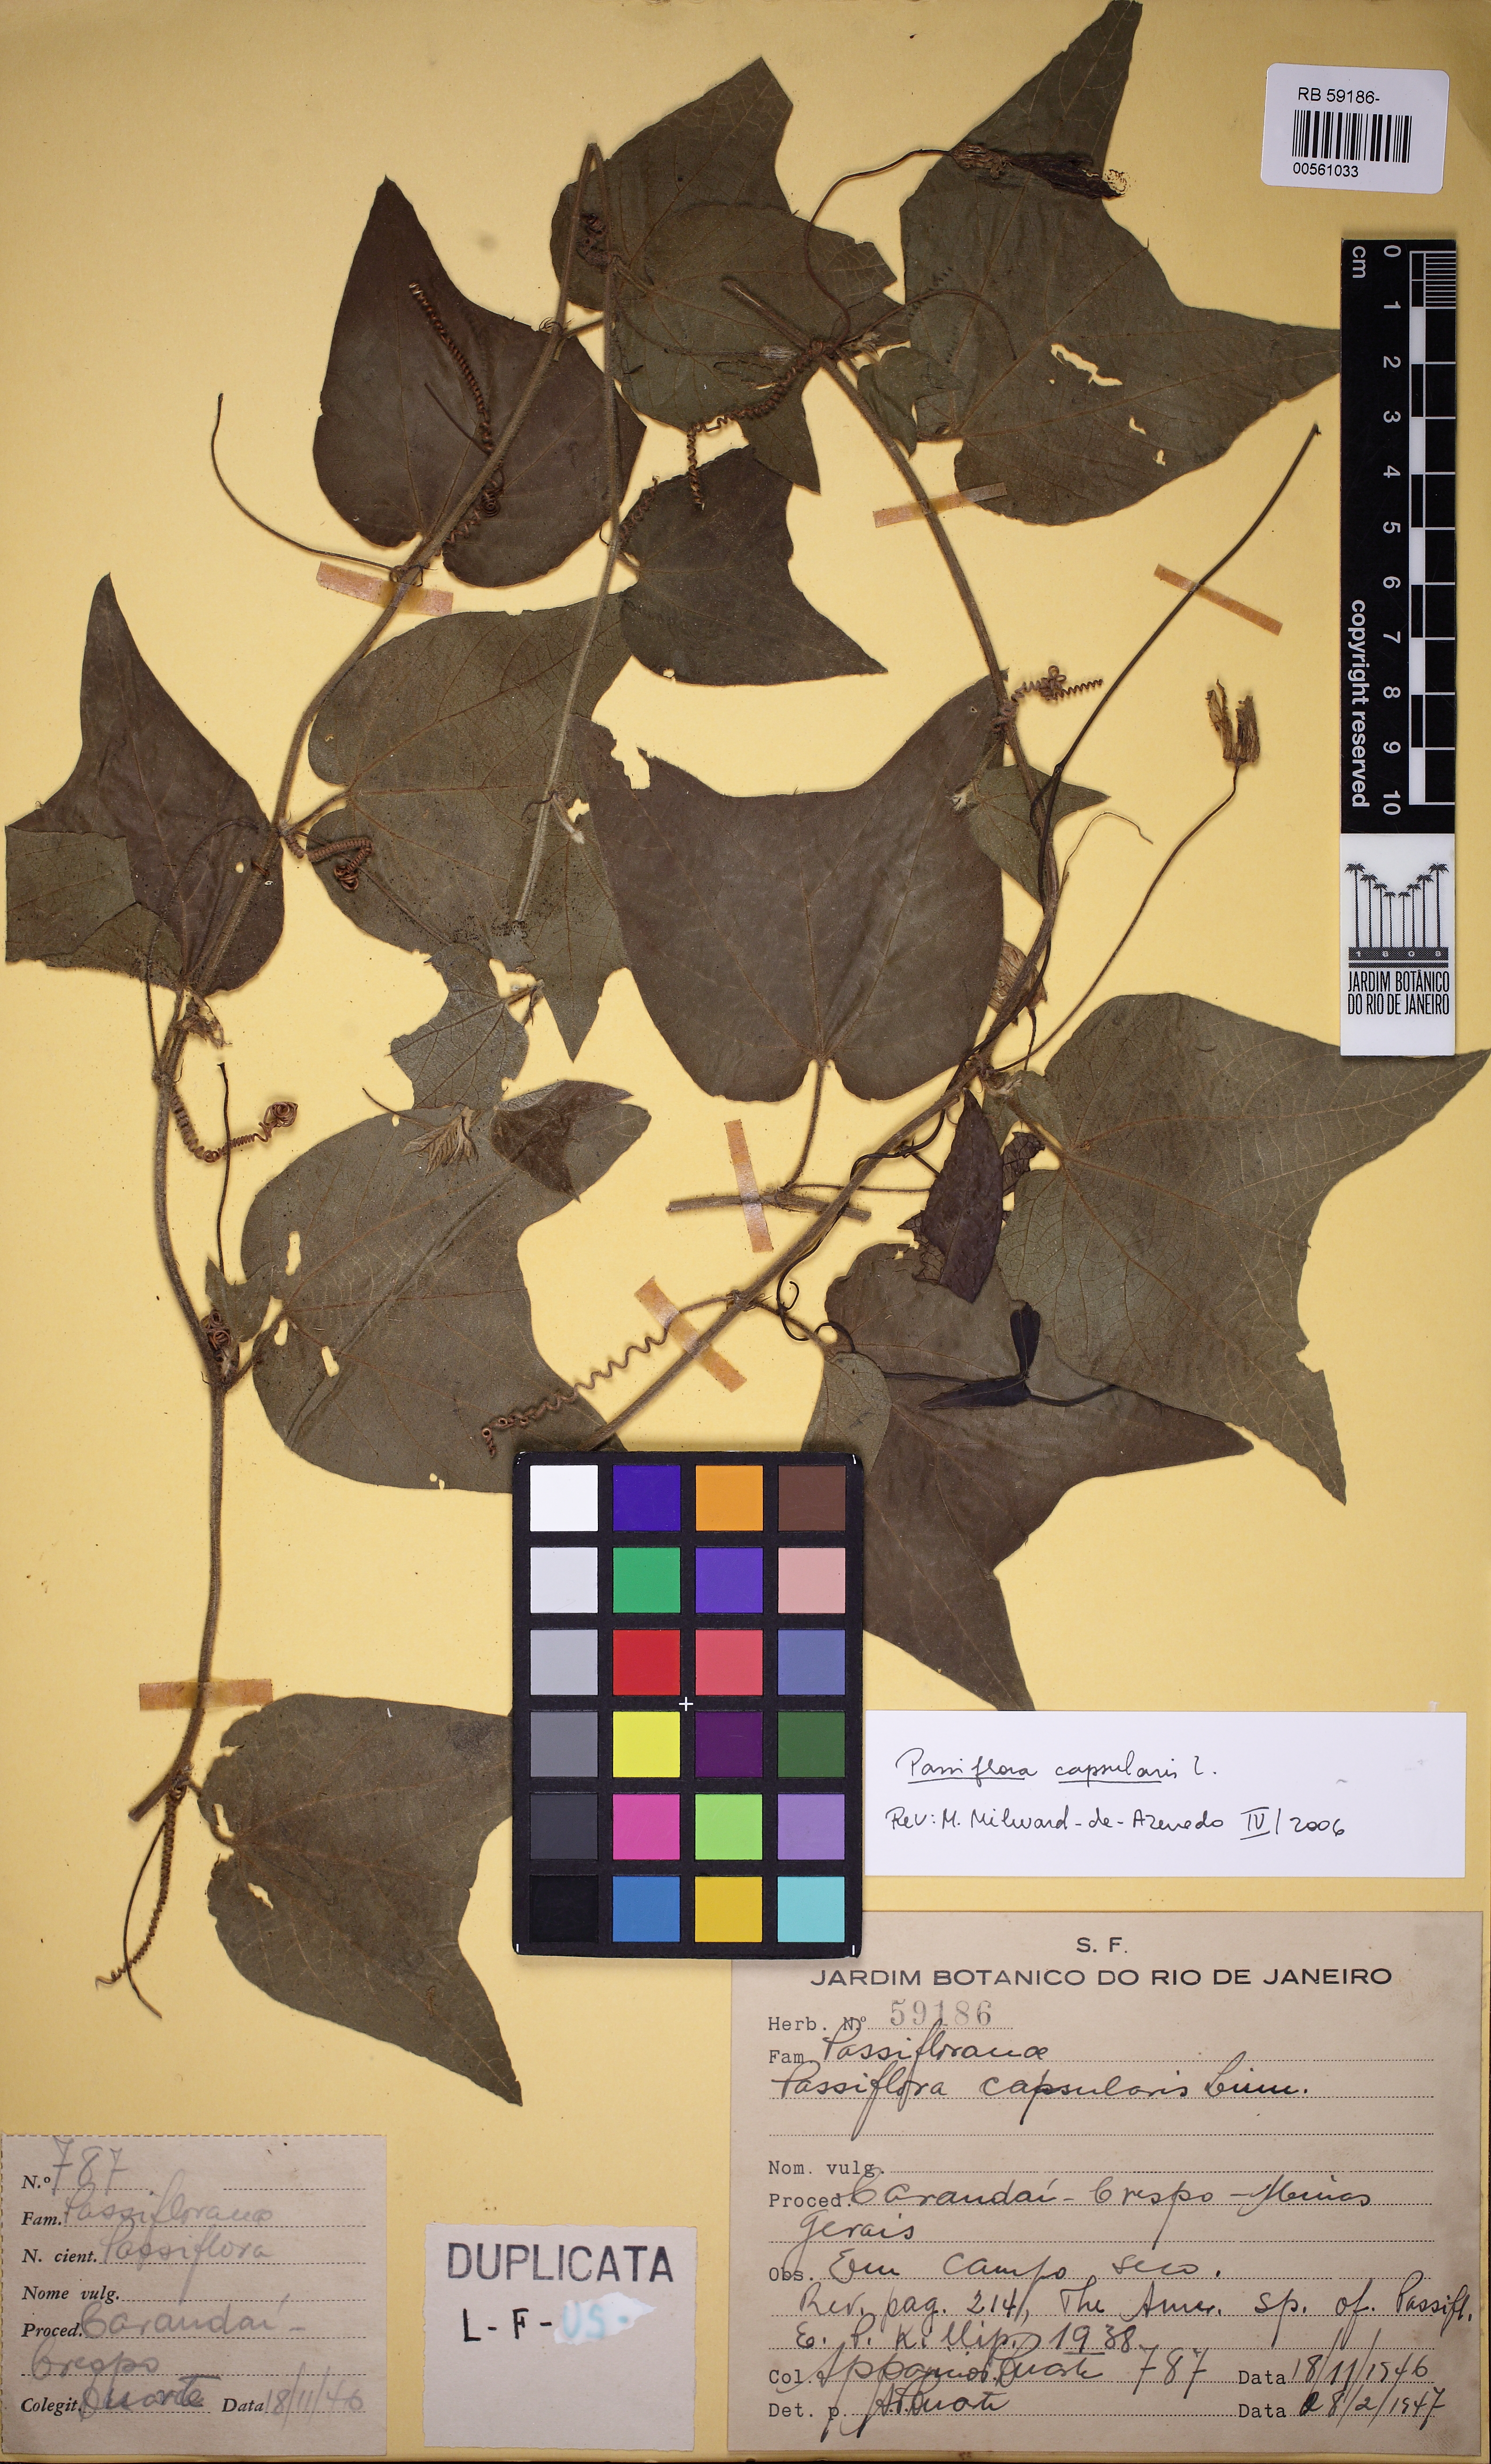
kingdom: Plantae
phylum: Tracheophyta
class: Magnoliopsida
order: Malpighiales
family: Passifloraceae
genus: Passiflora
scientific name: Passiflora capsularis
